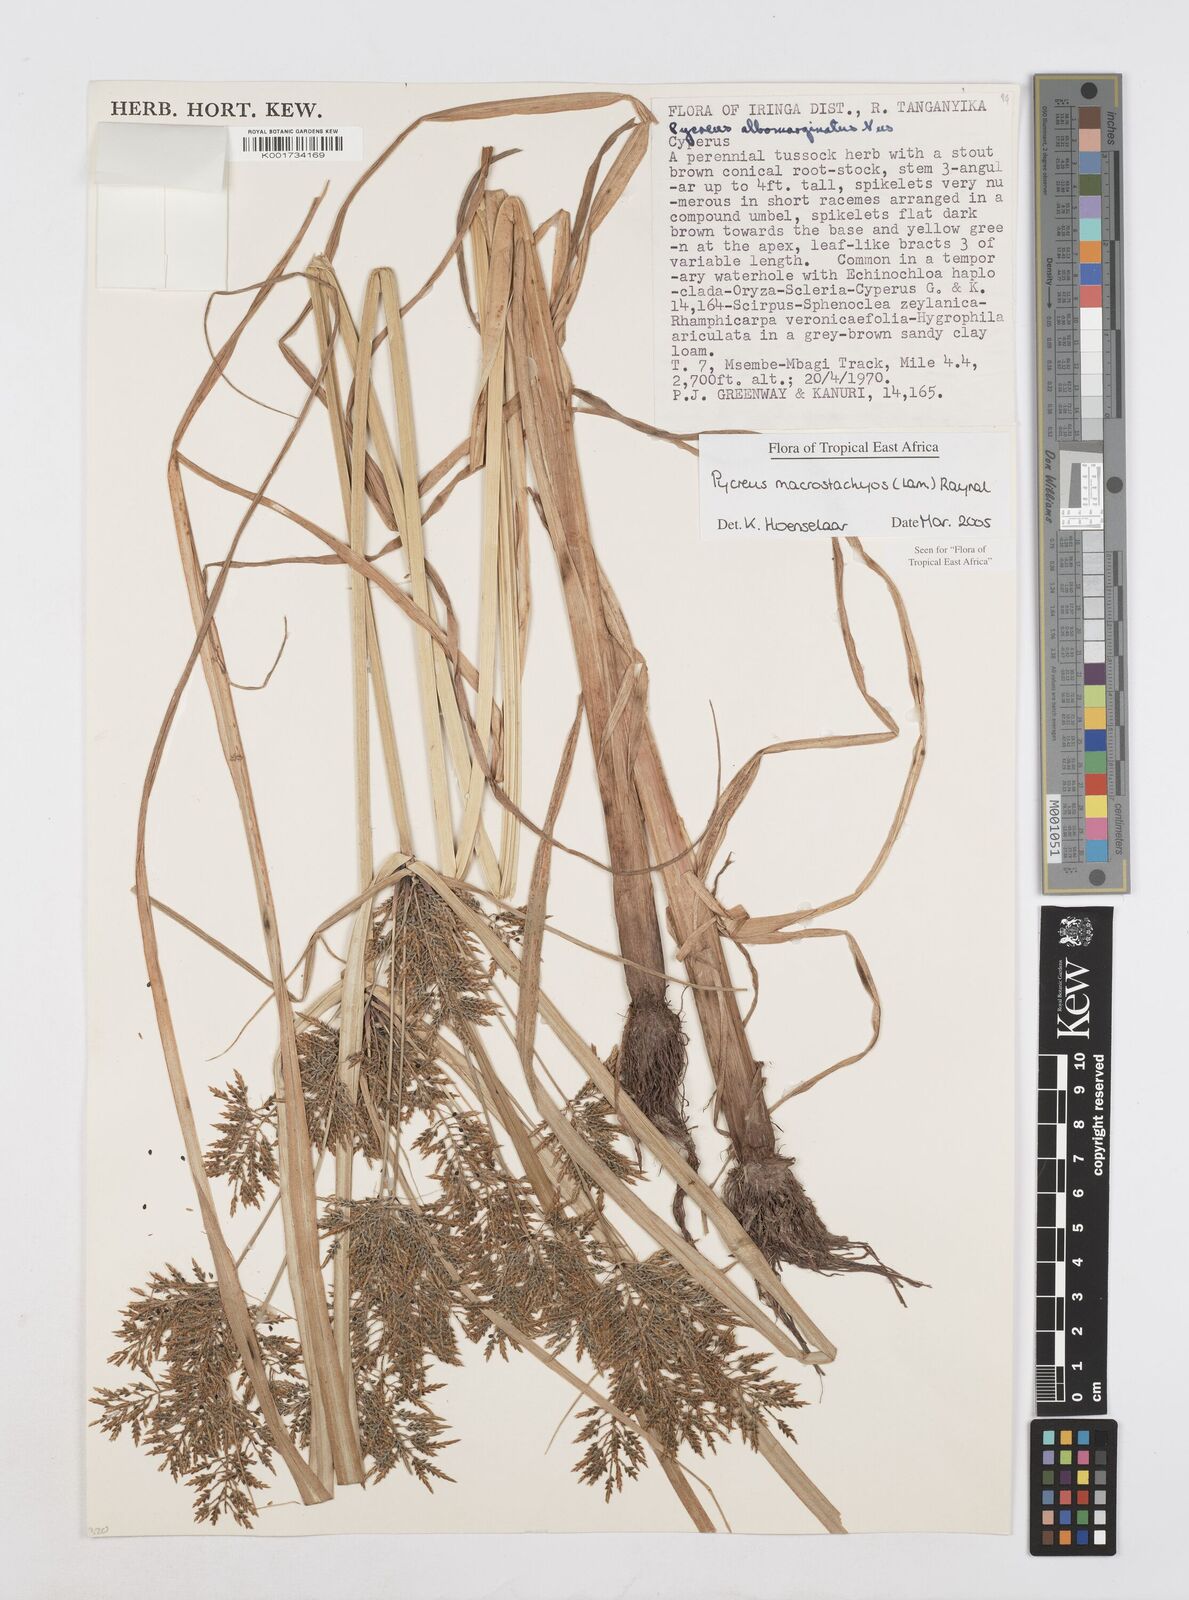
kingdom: Plantae
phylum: Tracheophyta
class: Liliopsida
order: Poales
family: Cyperaceae
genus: Cyperus
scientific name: Cyperus macrostachyos
